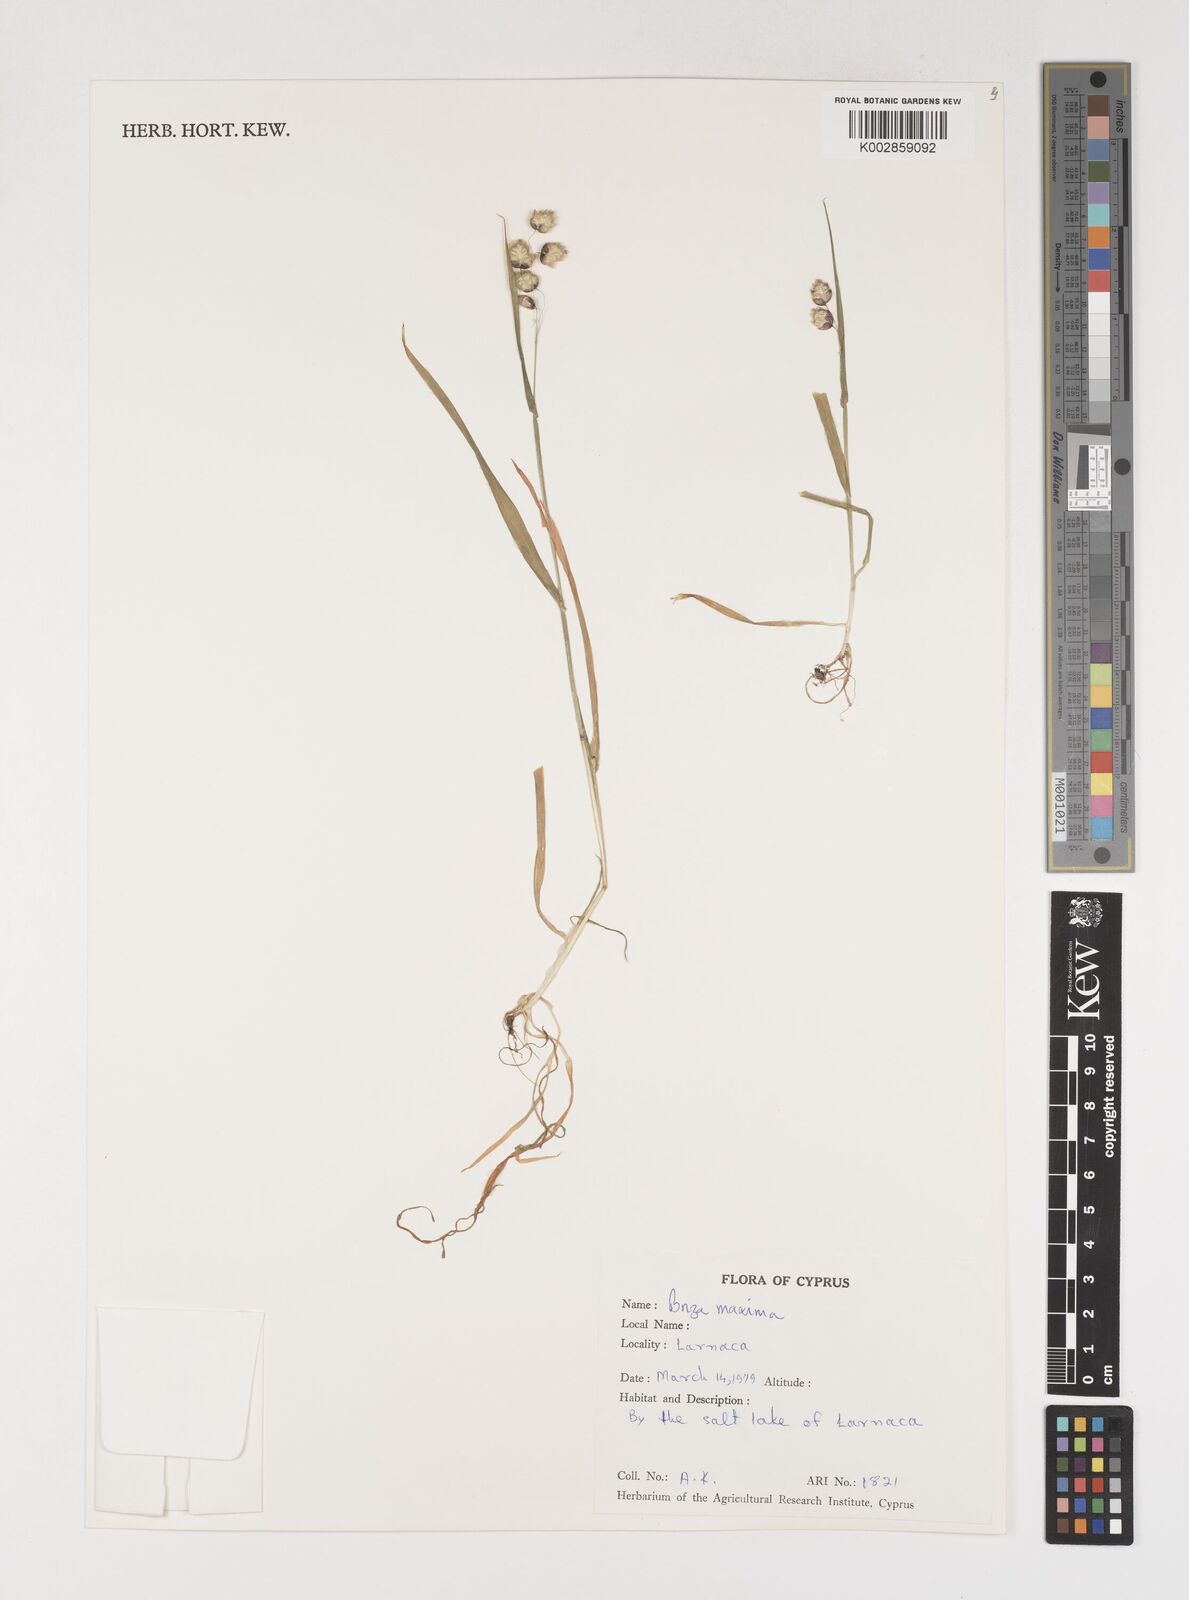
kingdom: Plantae
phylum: Tracheophyta
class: Liliopsida
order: Poales
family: Poaceae
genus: Briza
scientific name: Briza maxima
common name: Big quakinggrass
